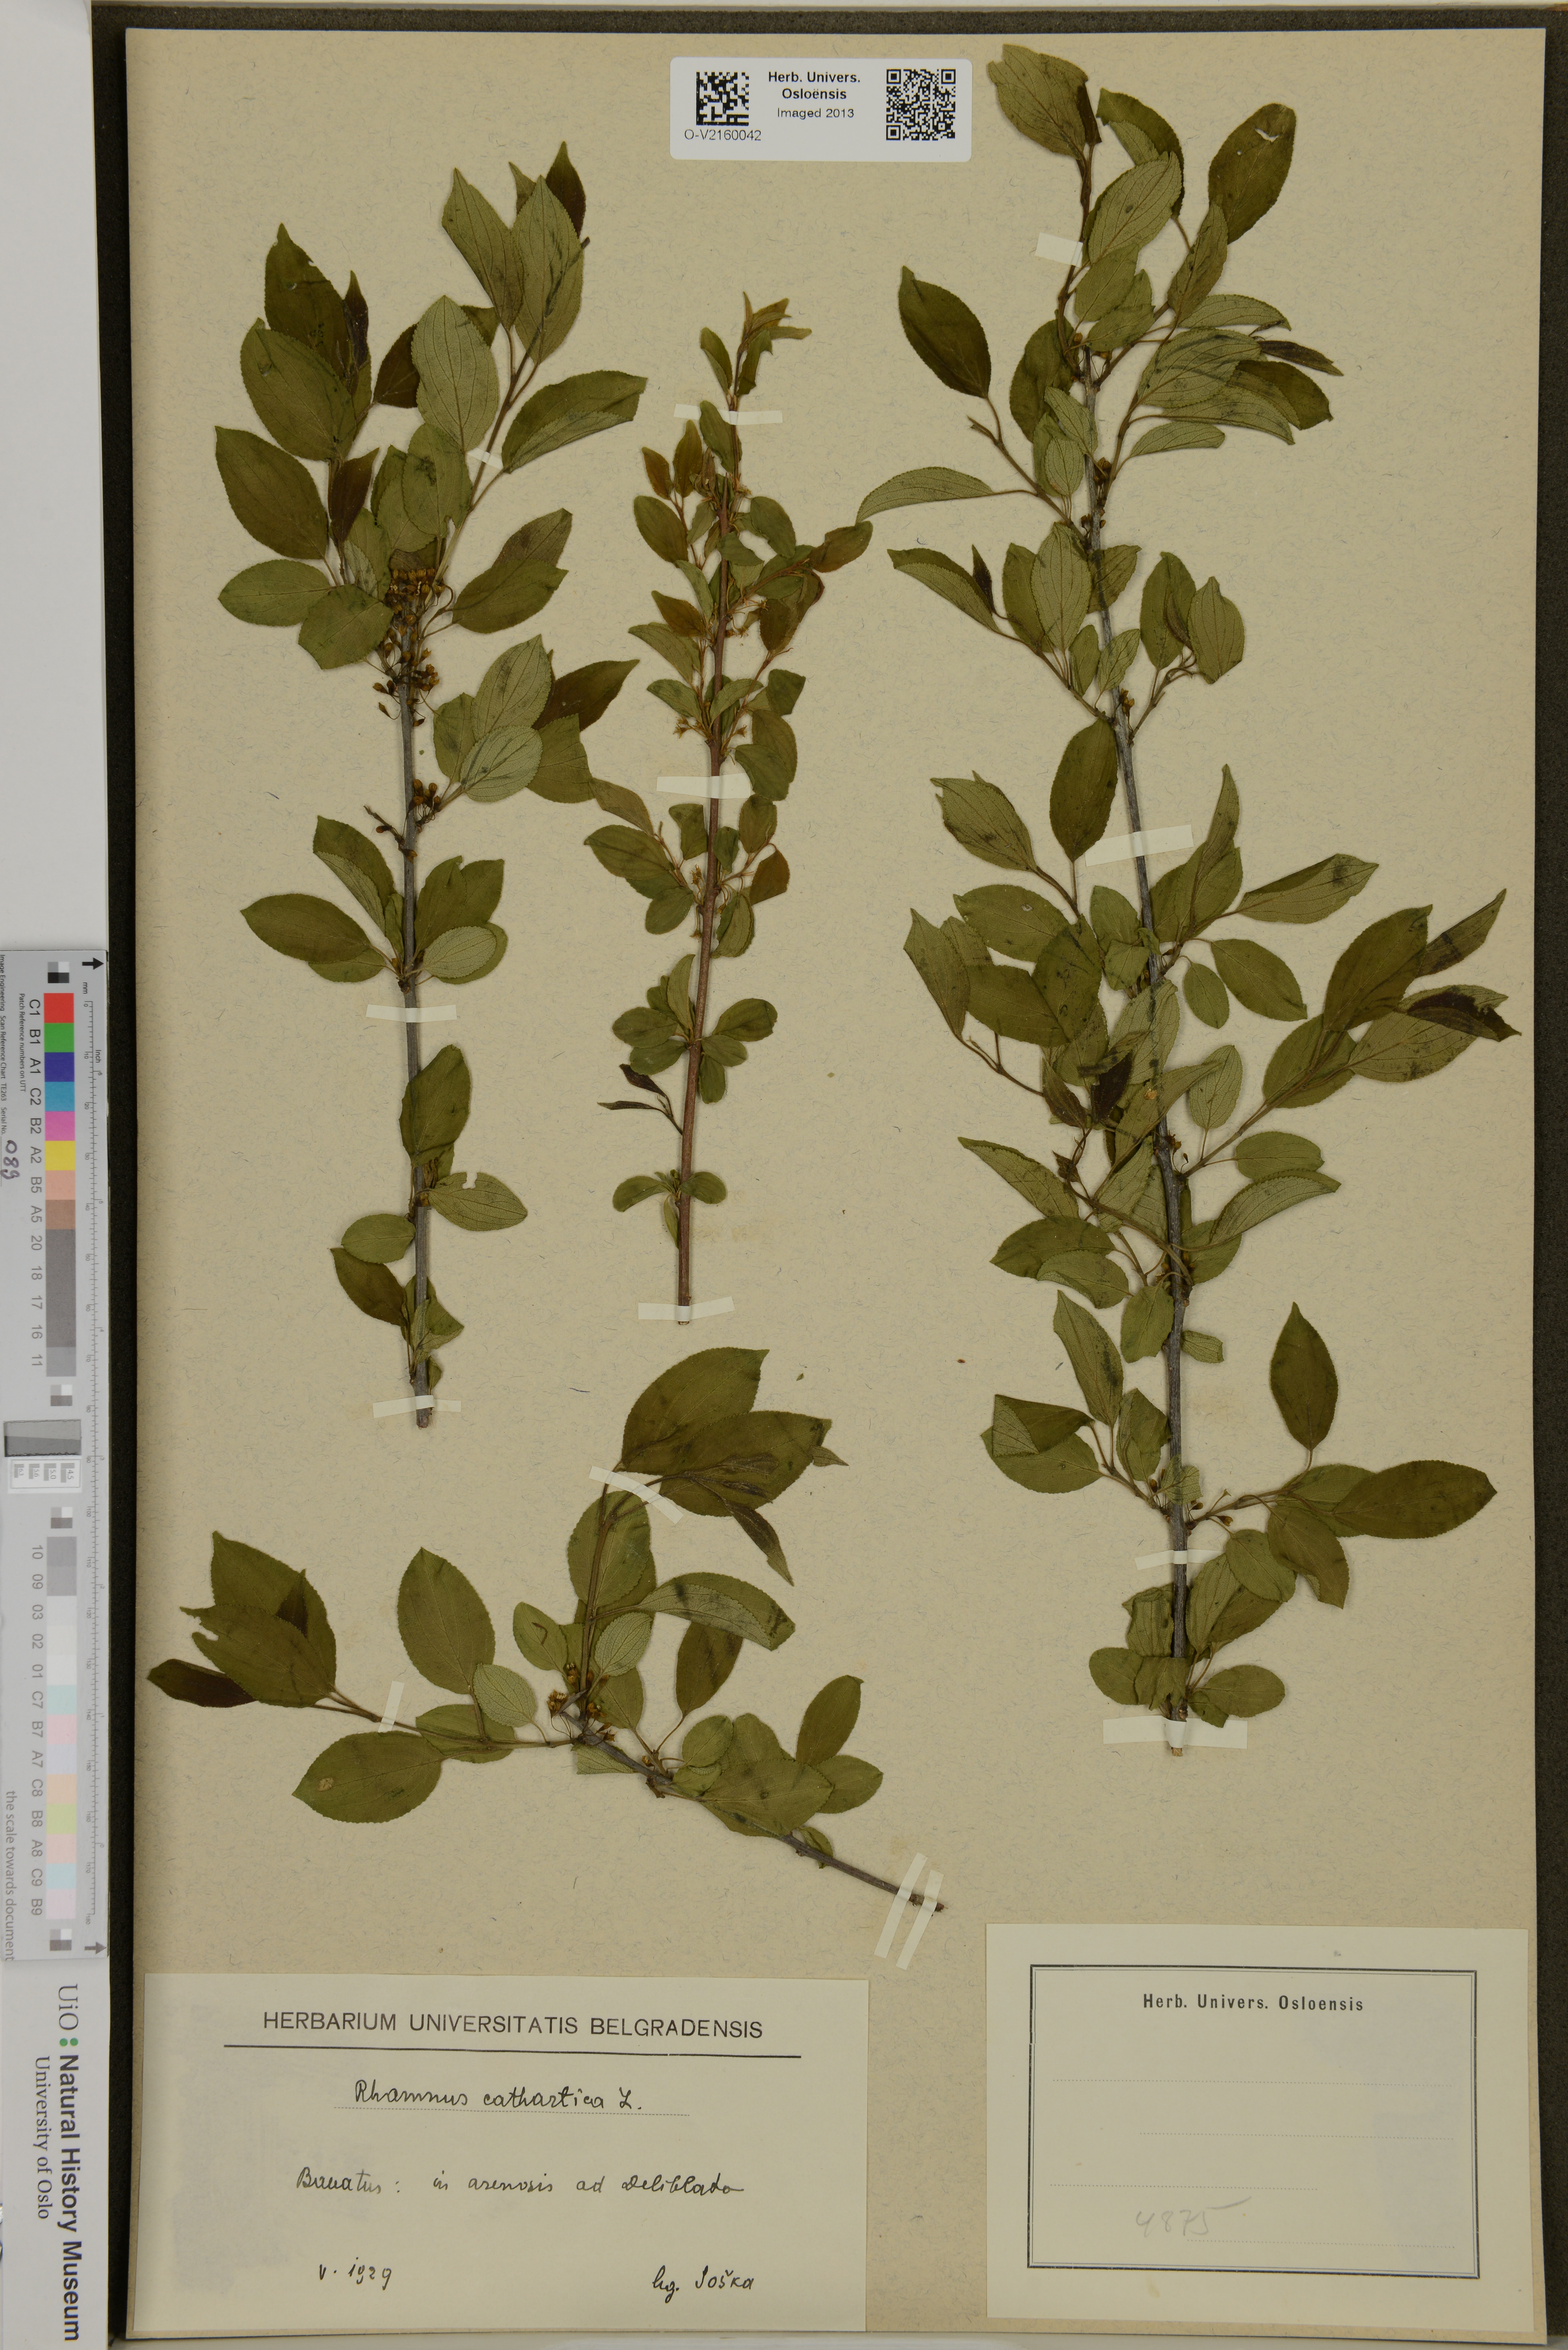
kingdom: Plantae
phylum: Tracheophyta
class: Magnoliopsida
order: Rosales
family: Rhamnaceae
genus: Rhamnus
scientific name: Rhamnus cathartica
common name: Common buckthorn
